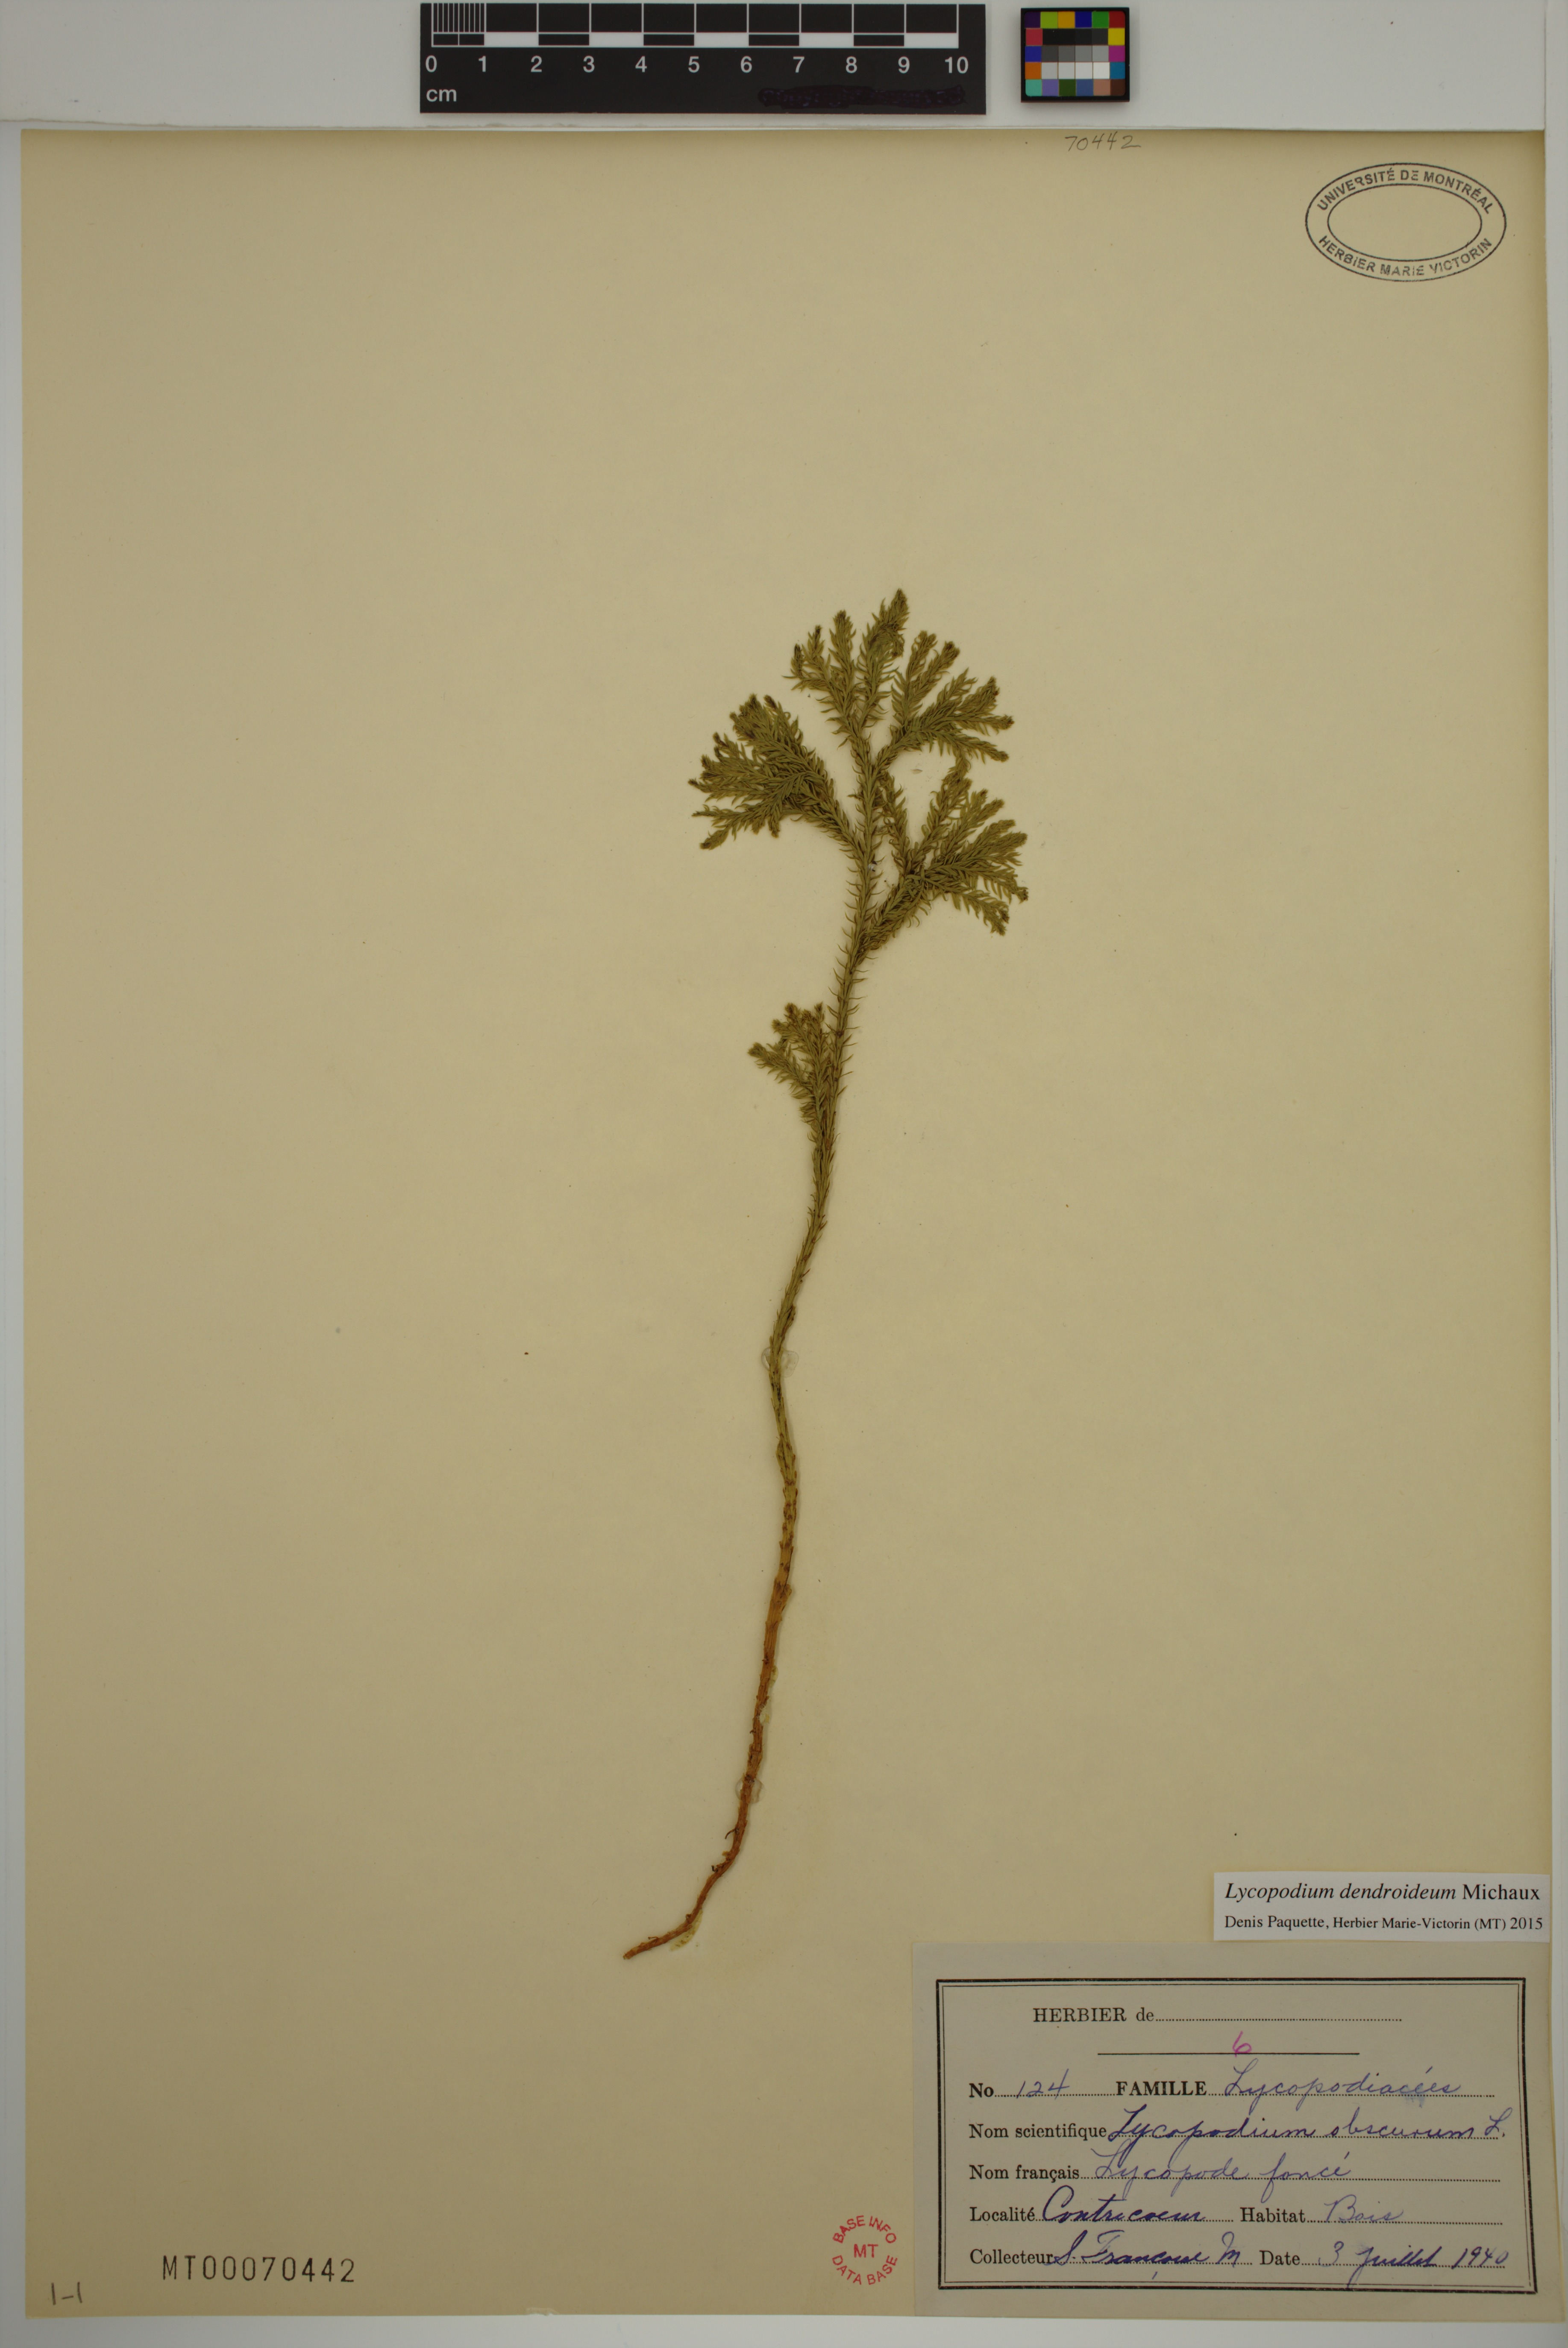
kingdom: Plantae
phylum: Tracheophyta
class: Lycopodiopsida
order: Lycopodiales
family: Lycopodiaceae
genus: Dendrolycopodium
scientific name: Dendrolycopodium obscurum
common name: Common ground-pine
